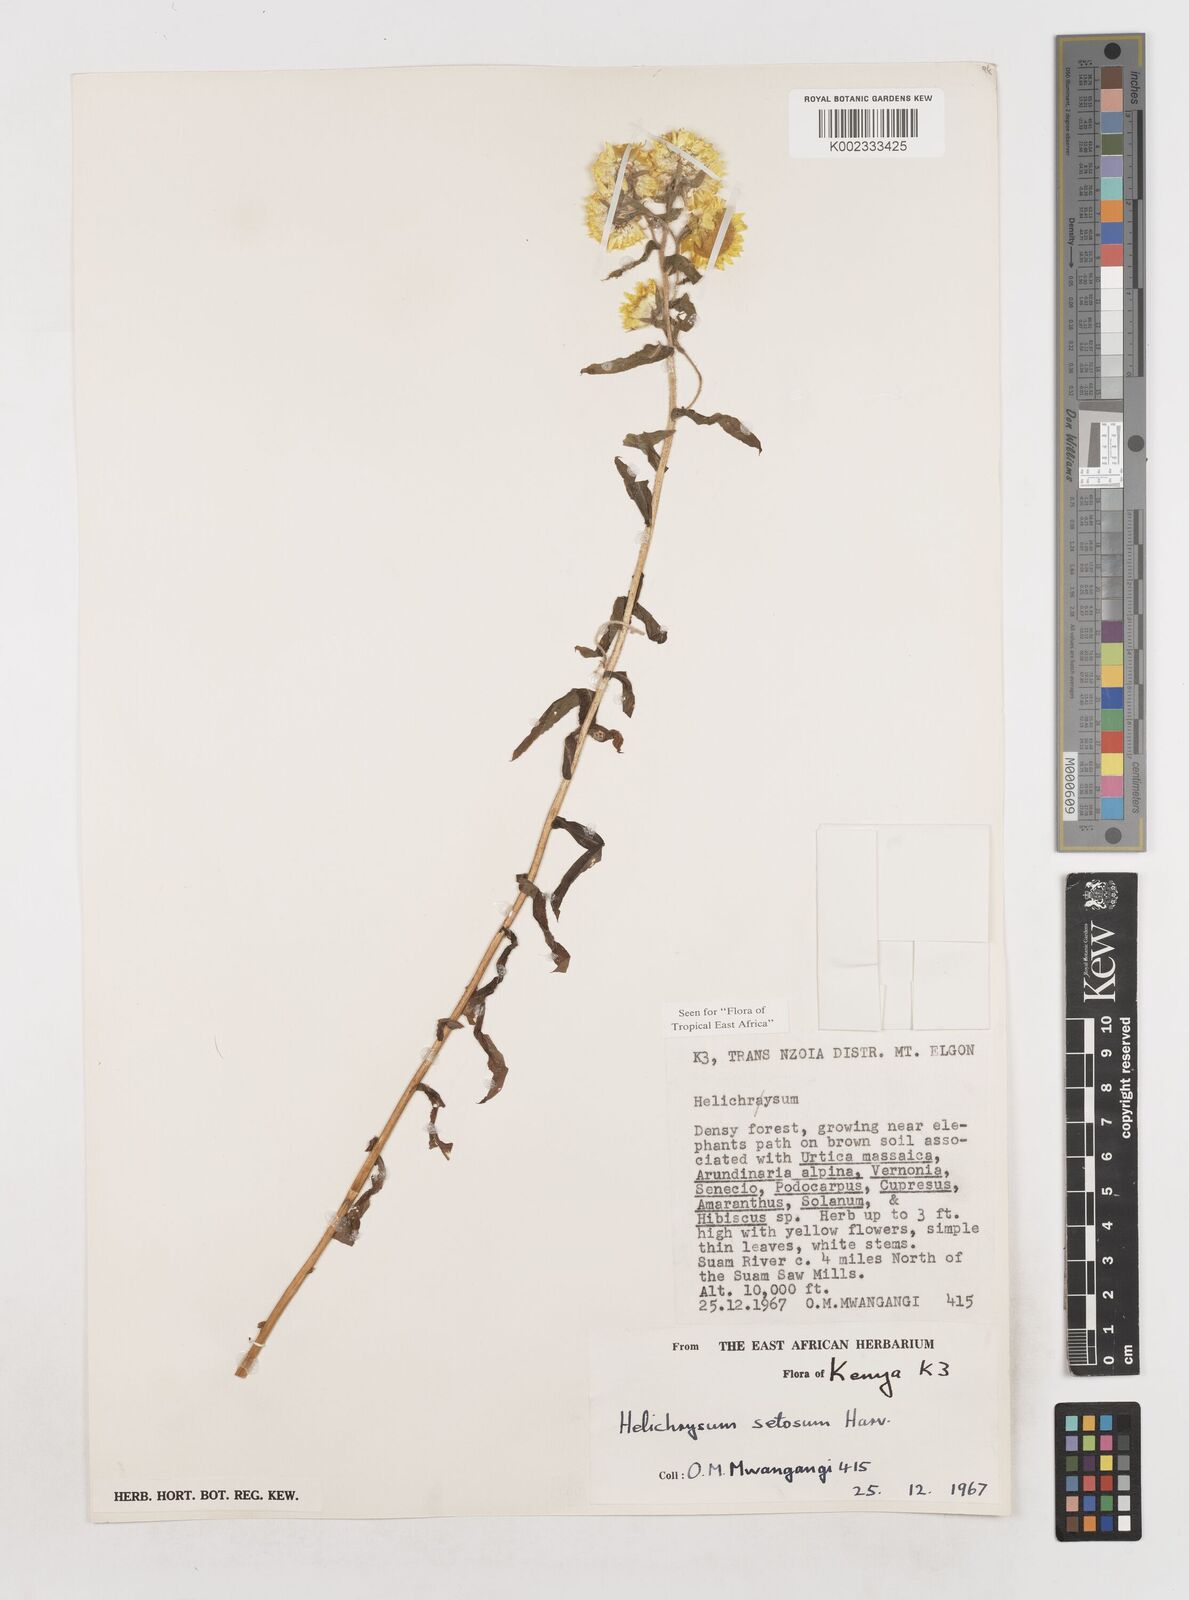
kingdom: Plantae
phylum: Tracheophyta
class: Magnoliopsida
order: Asterales
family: Asteraceae
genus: Helichrysum
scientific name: Helichrysum setosum
